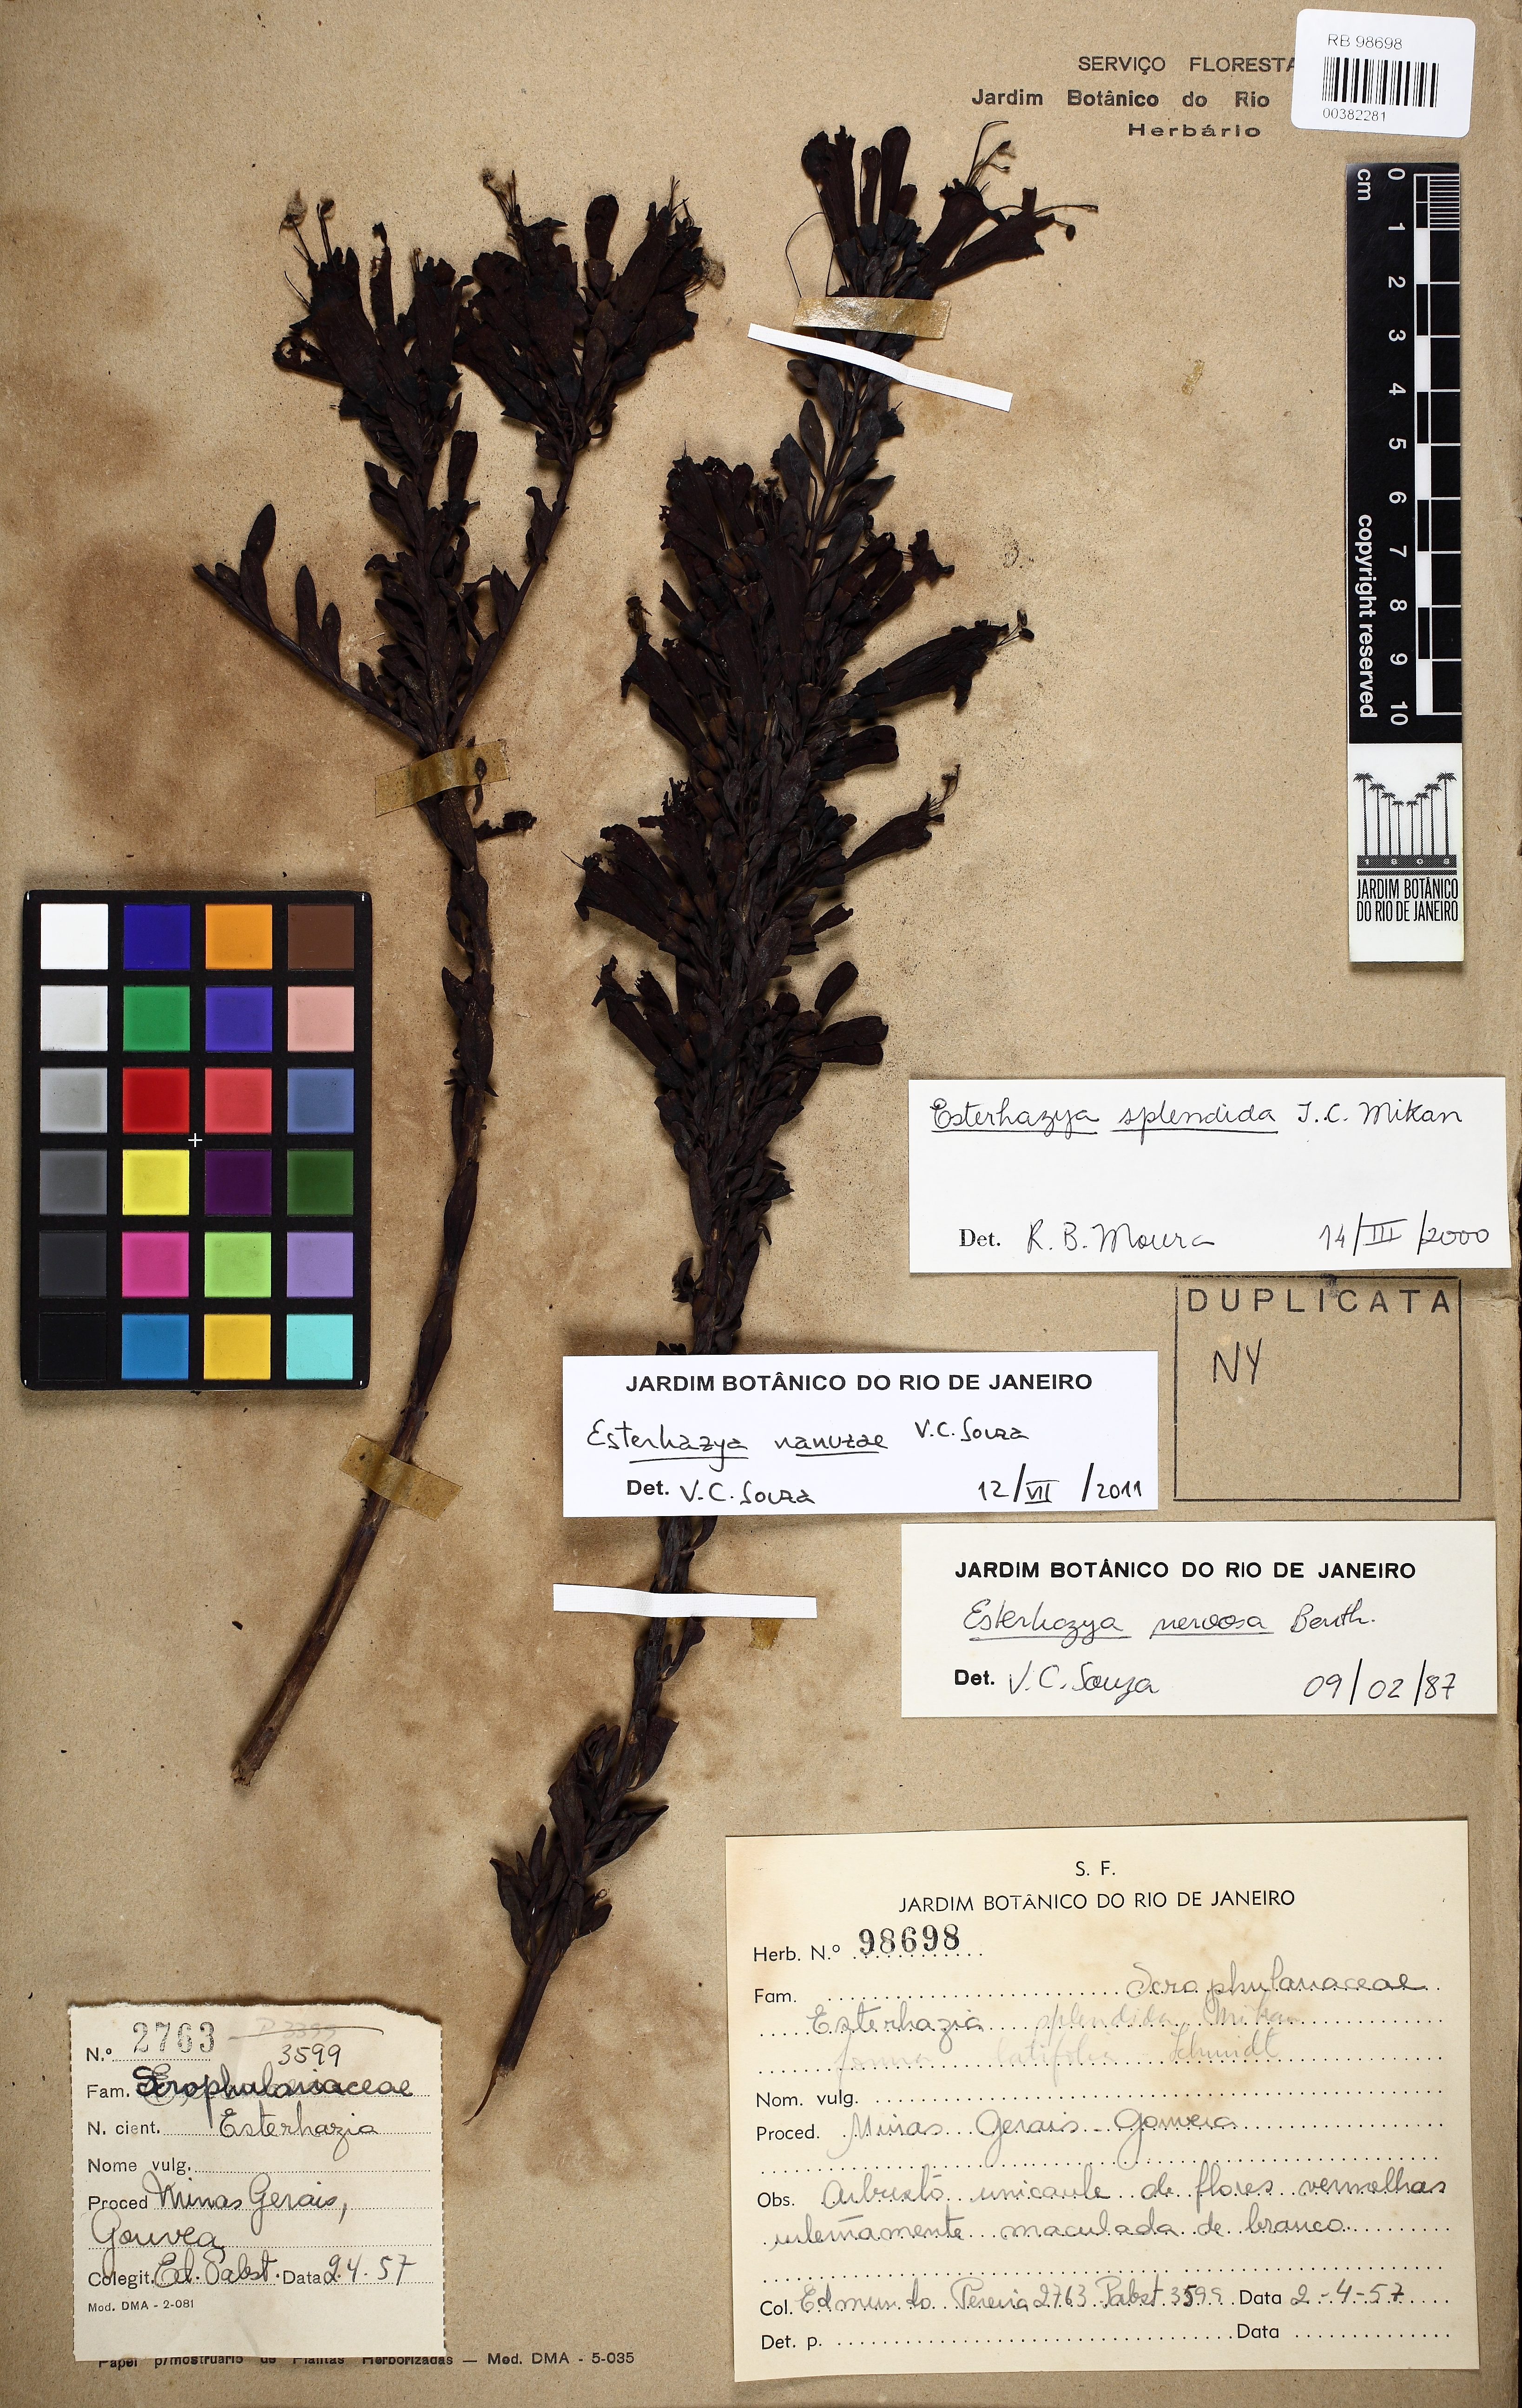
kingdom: Plantae
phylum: Tracheophyta
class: Magnoliopsida
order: Lamiales
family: Orobanchaceae
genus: Esterhazya
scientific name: Esterhazya nanuzae
